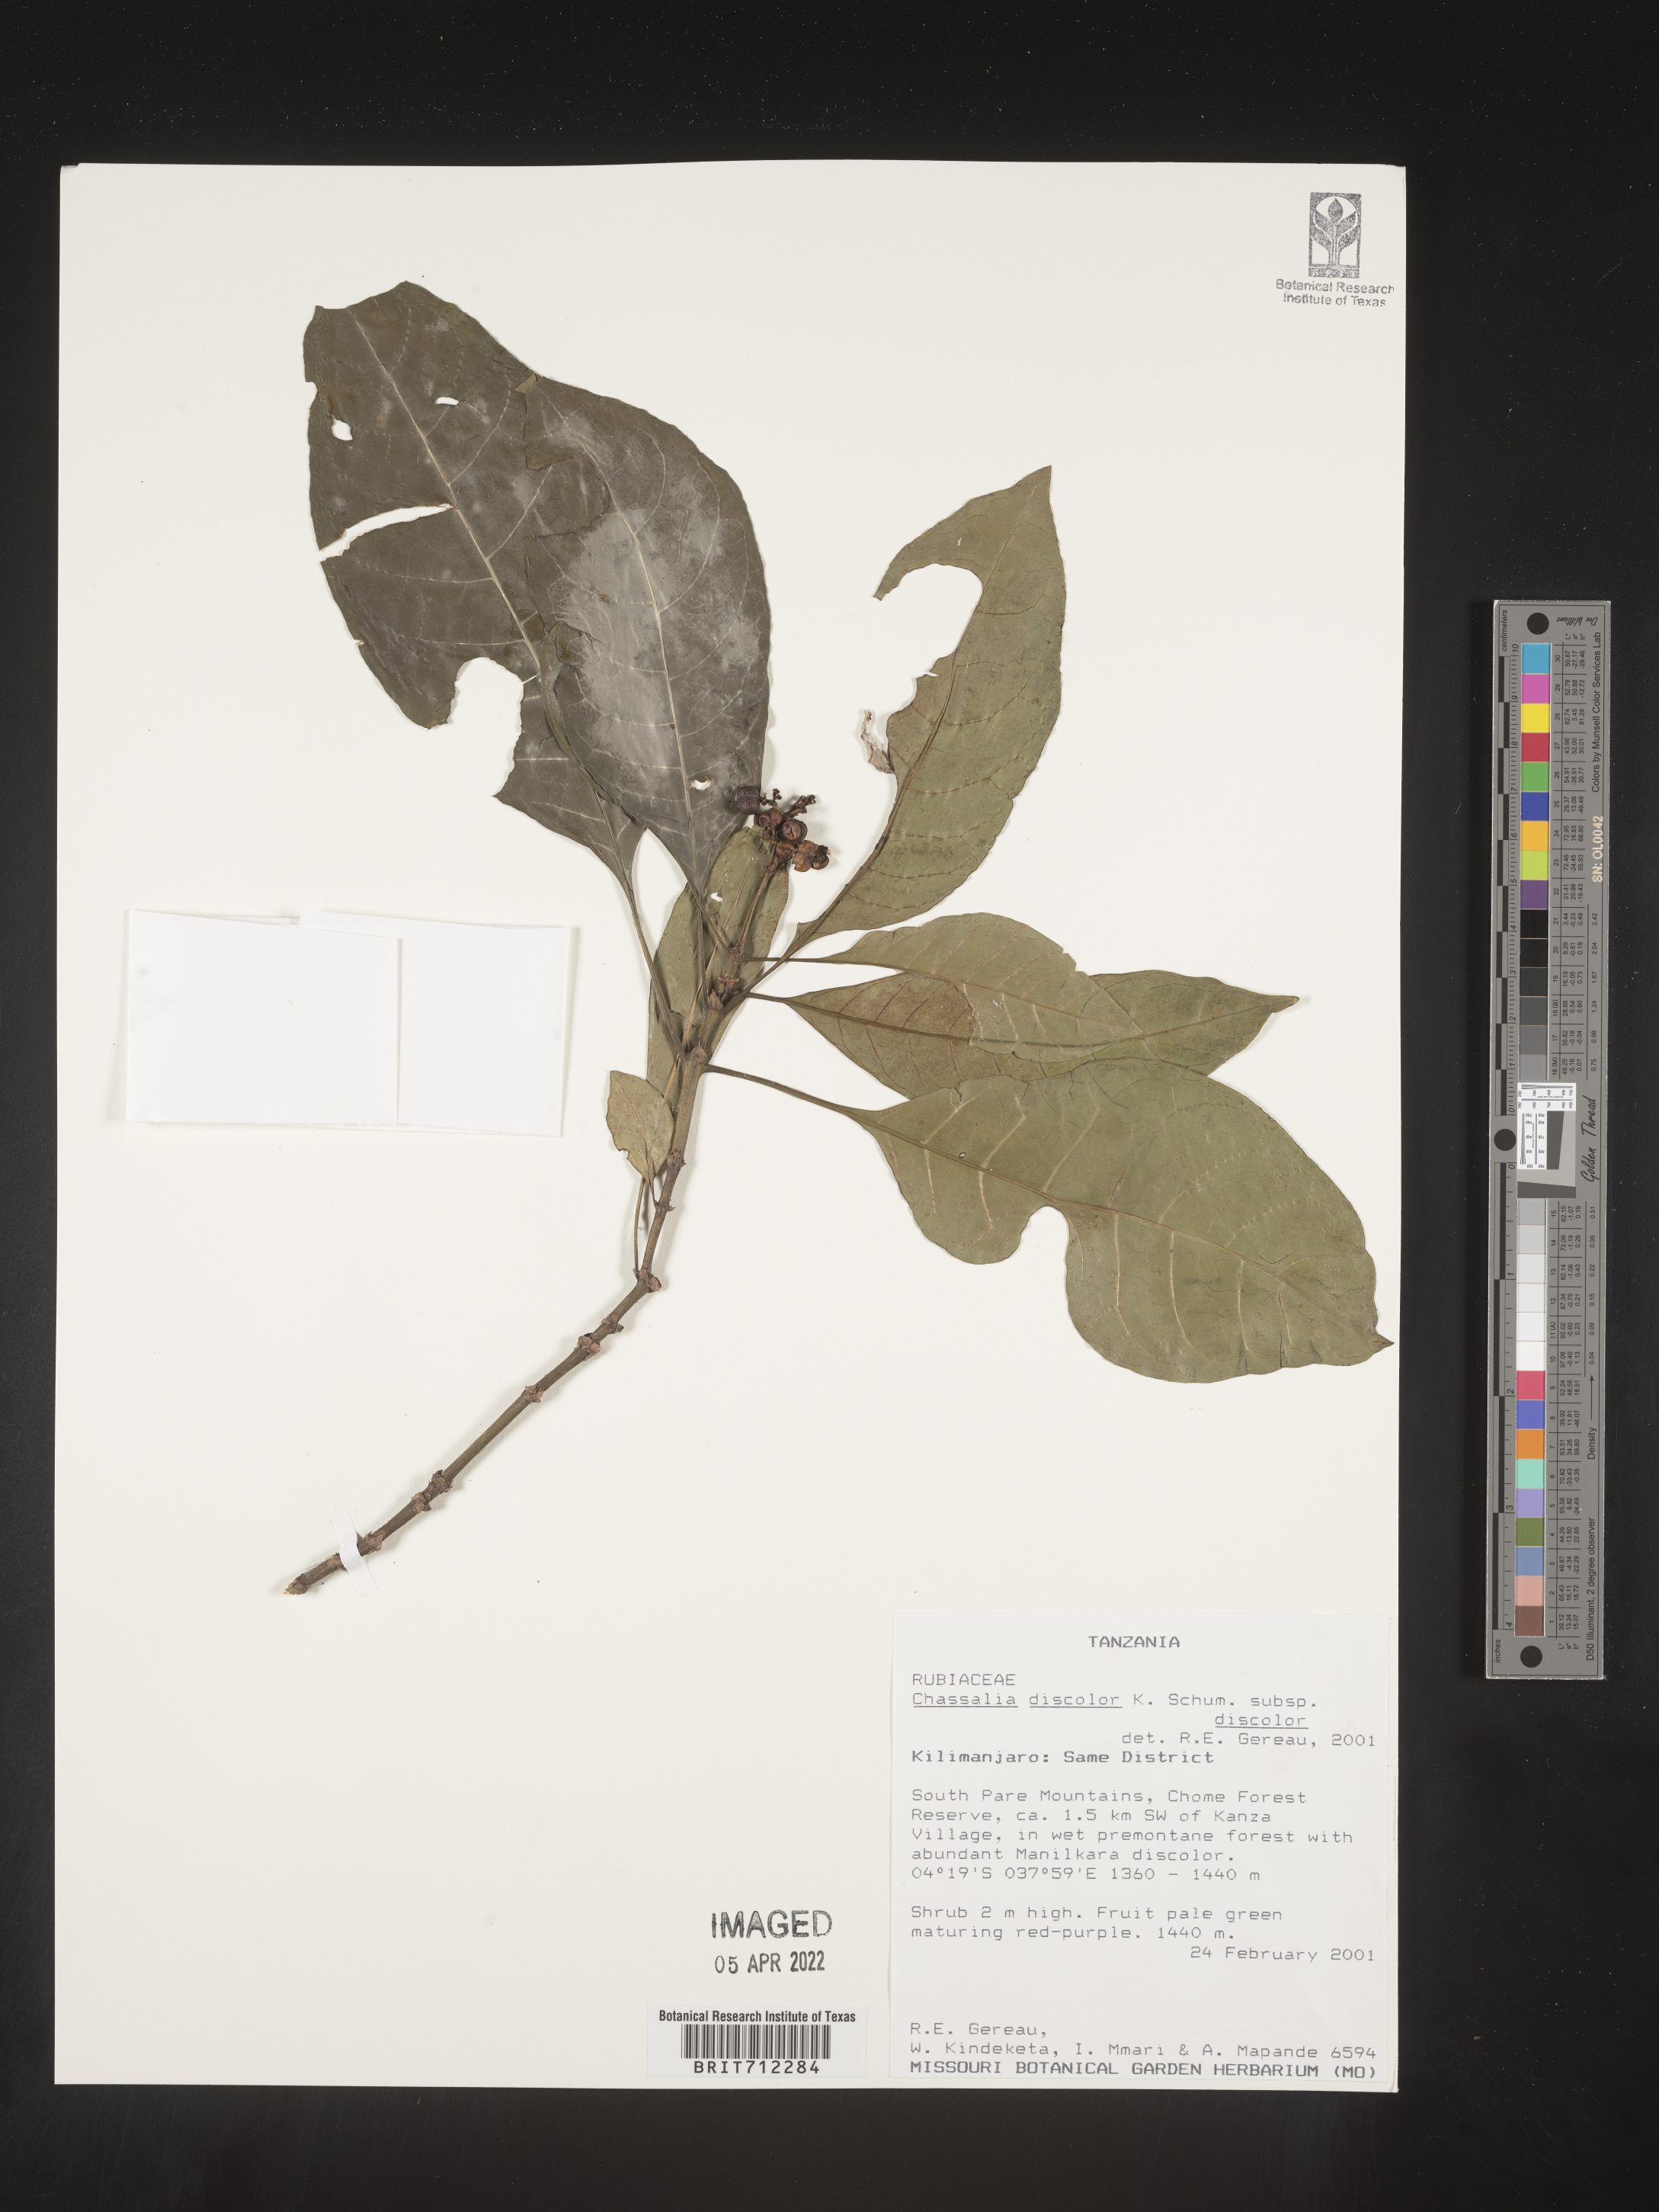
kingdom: Plantae
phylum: Tracheophyta
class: Magnoliopsida
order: Gentianales
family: Rubiaceae
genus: Chassalia
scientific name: Chassalia
